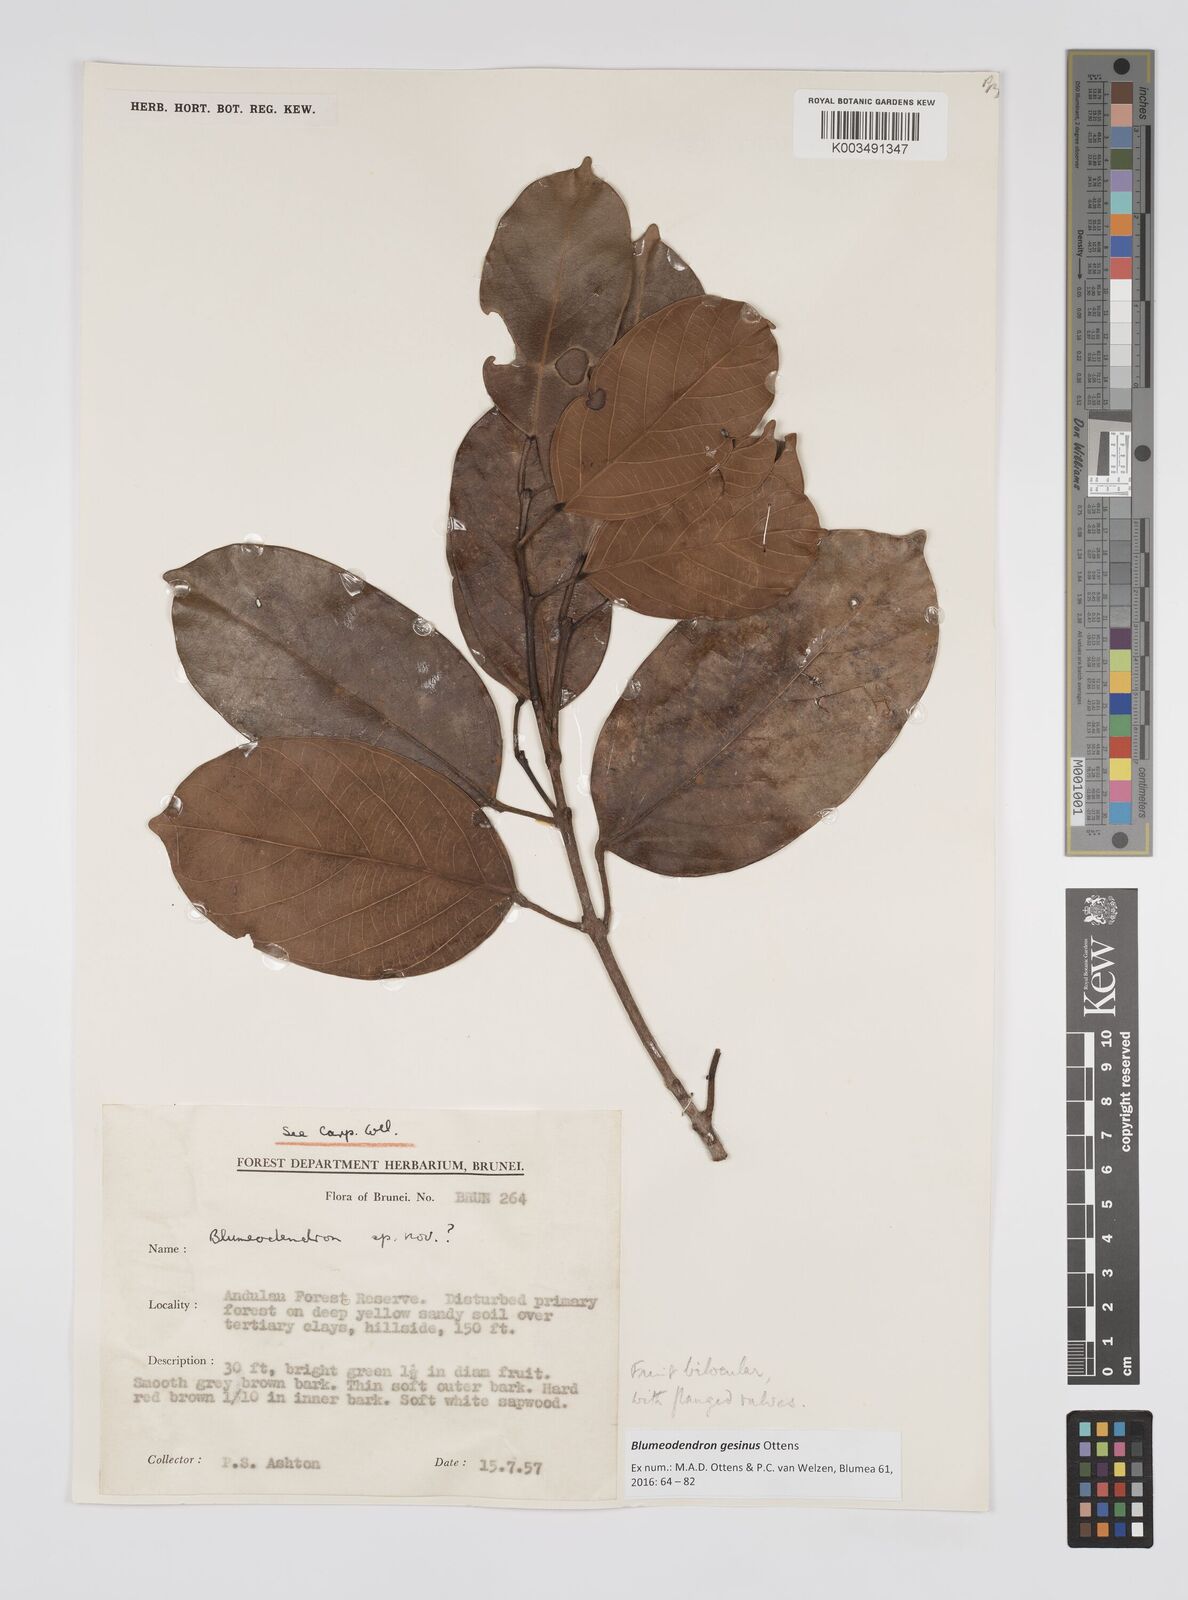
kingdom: Plantae
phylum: Tracheophyta
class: Magnoliopsida
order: Malpighiales
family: Euphorbiaceae
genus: Blumeodendron
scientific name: Blumeodendron gesinus
